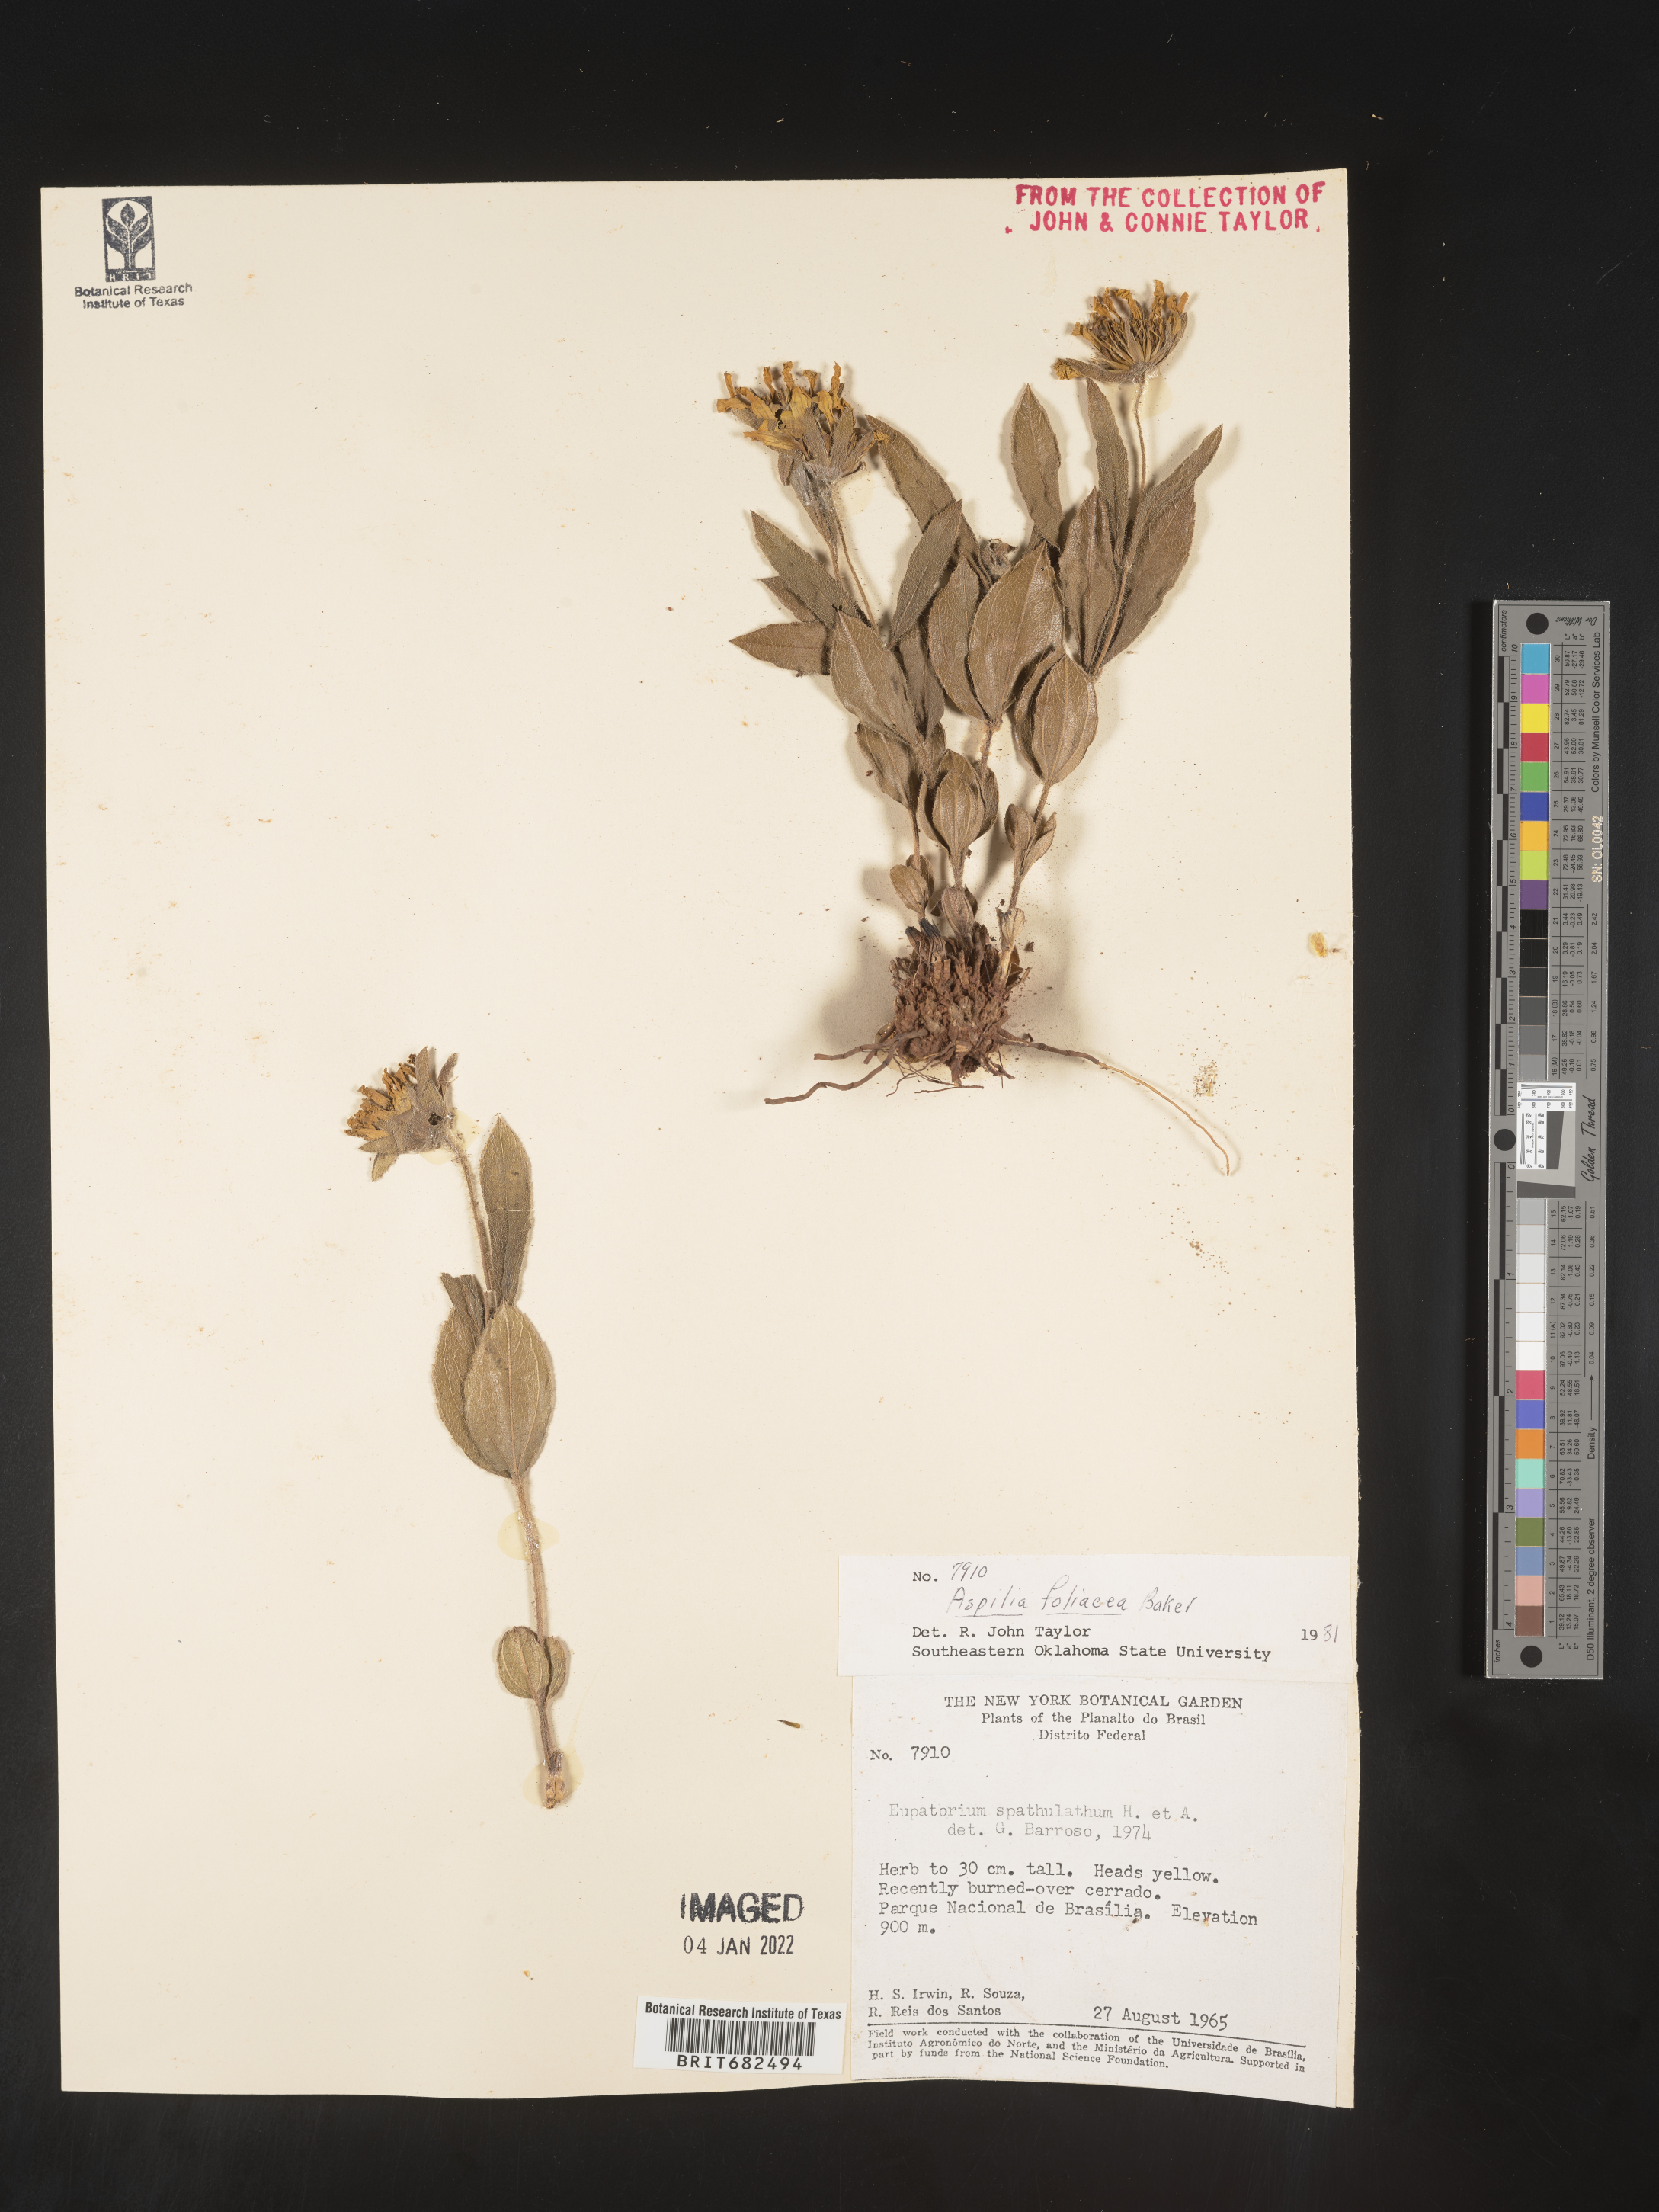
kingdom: Plantae
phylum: Tracheophyta
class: Magnoliopsida
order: Asterales
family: Asteraceae
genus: Aspilia
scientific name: Aspilia
